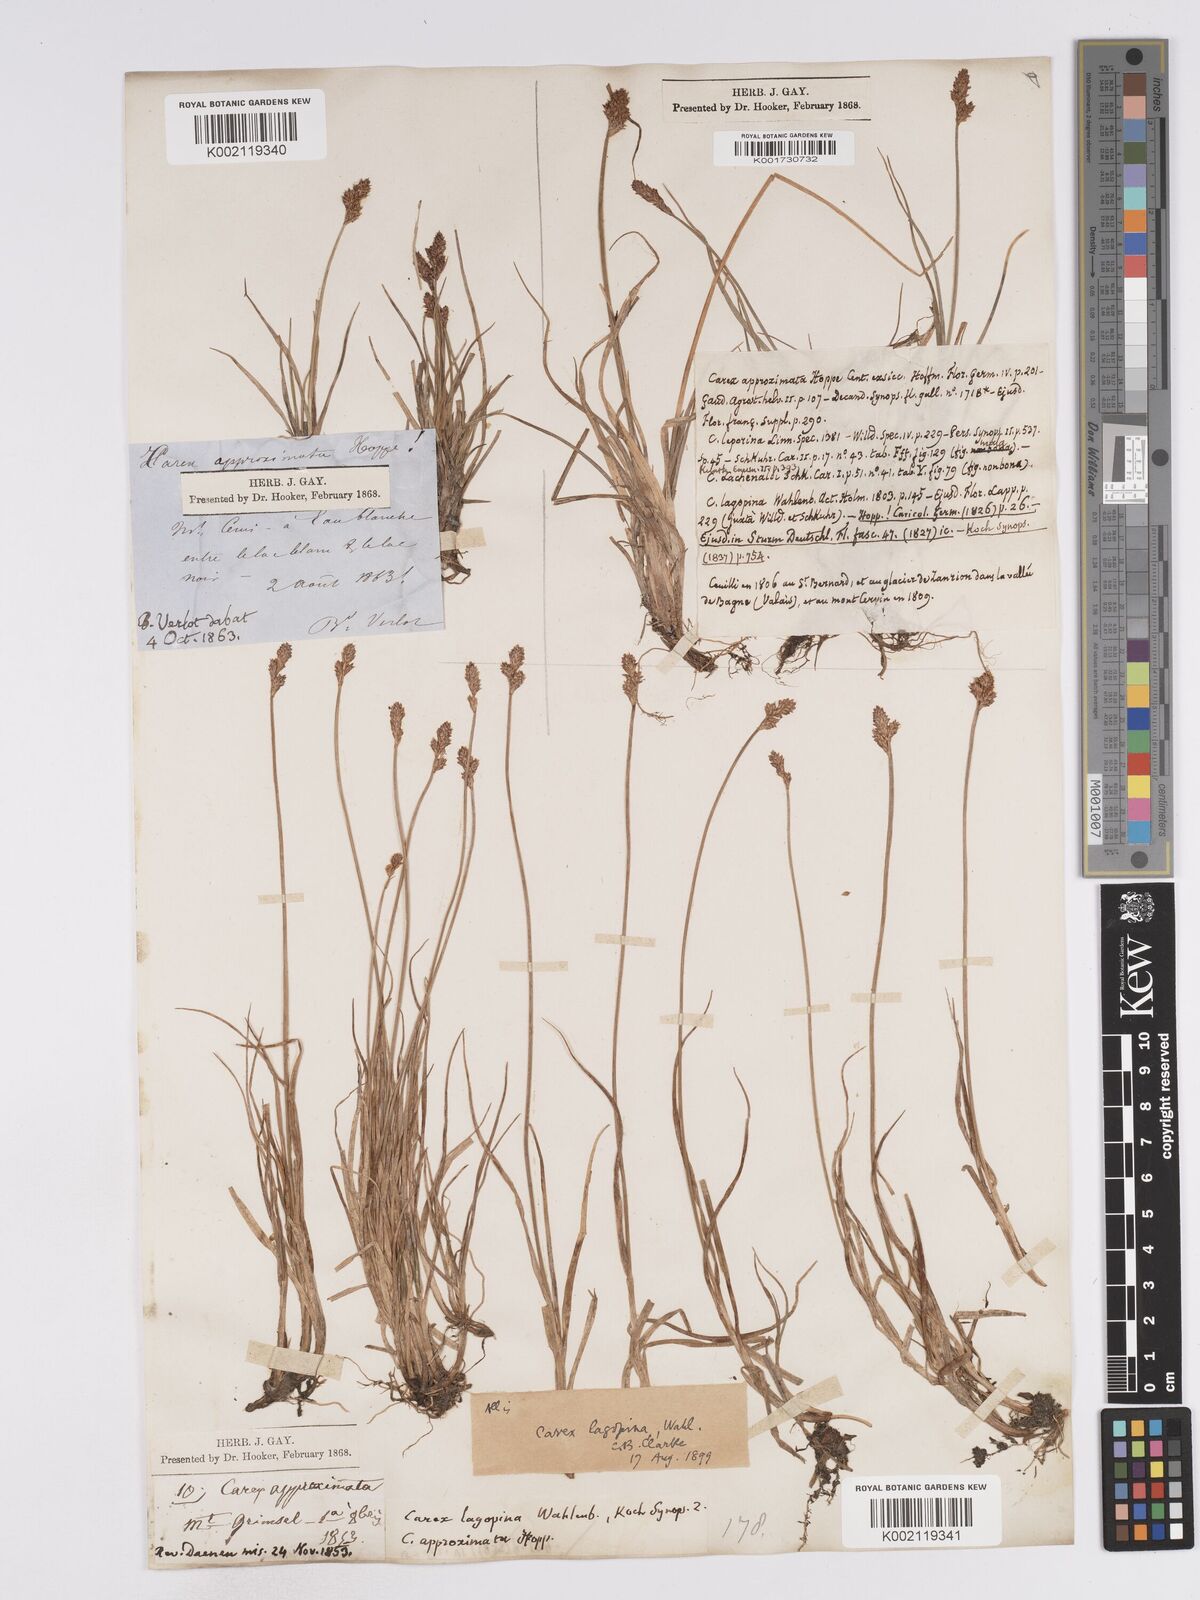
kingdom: Plantae
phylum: Tracheophyta
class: Liliopsida
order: Poales
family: Cyperaceae
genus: Carex
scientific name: Carex lachenalii
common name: Hare's-foot sedge
